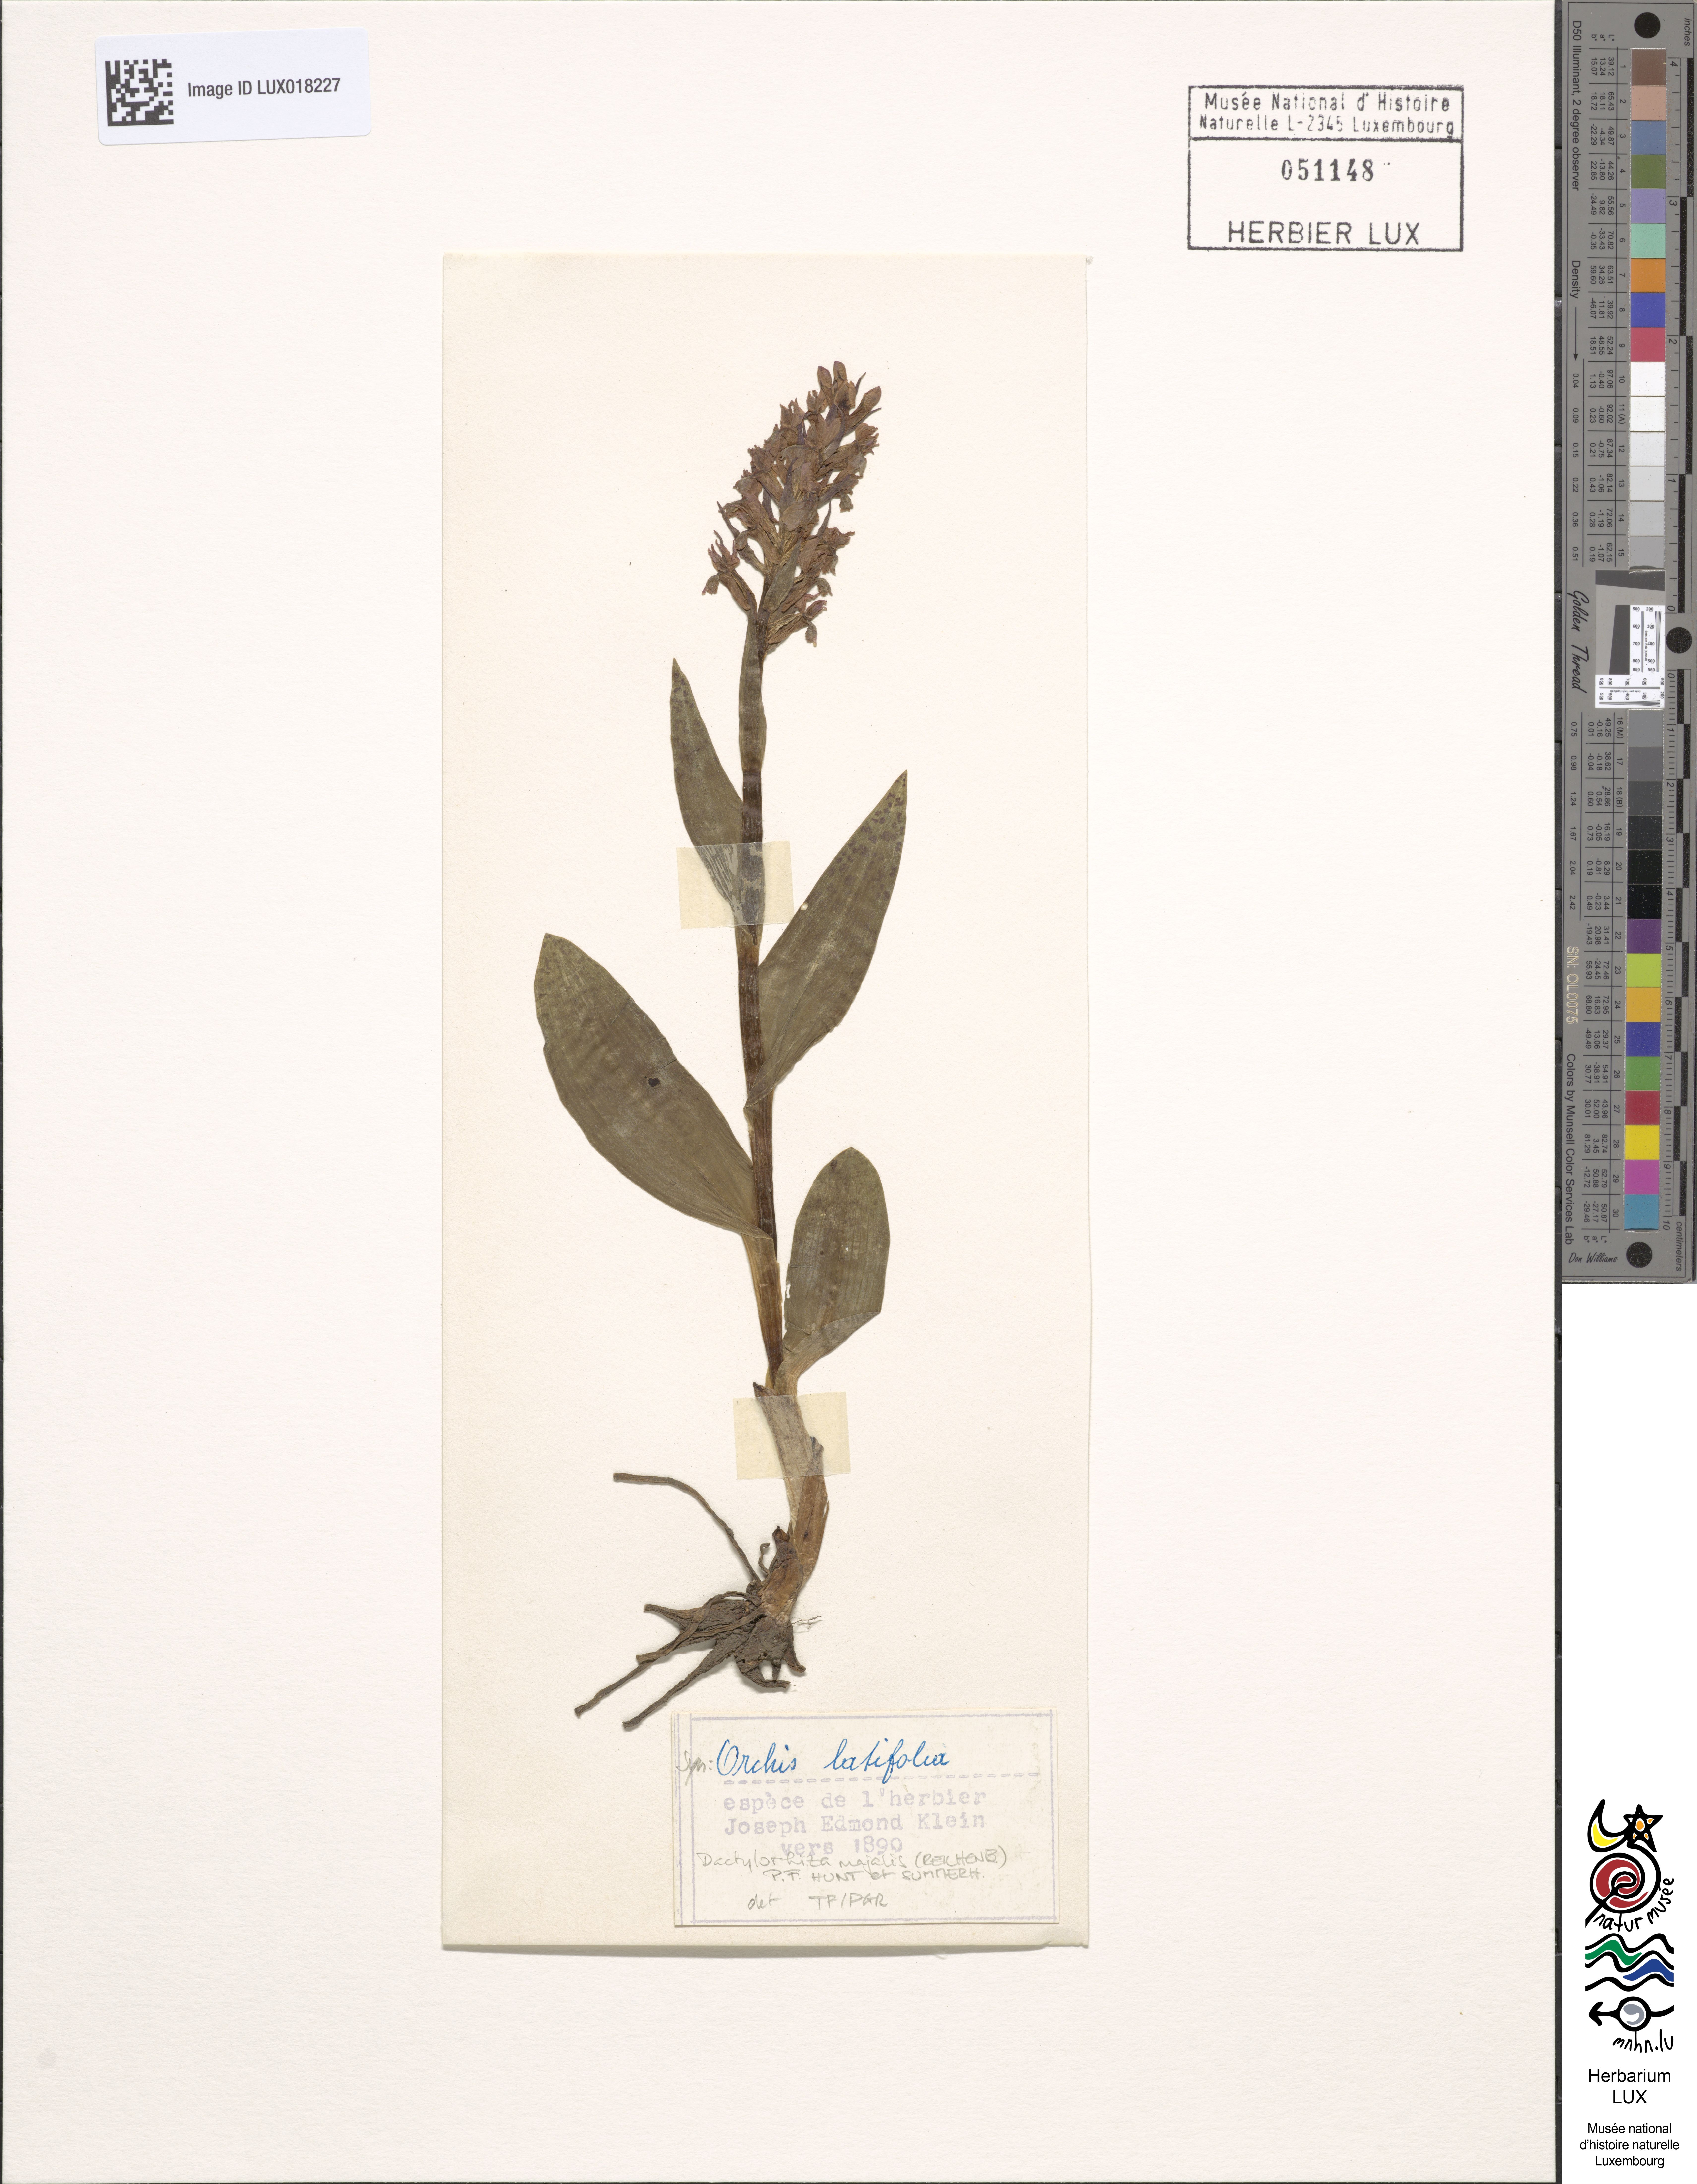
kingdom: Plantae
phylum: Tracheophyta
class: Liliopsida
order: Asparagales
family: Orchidaceae
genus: Dactylorhiza
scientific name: Dactylorhiza majalis
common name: Marsh orchid
